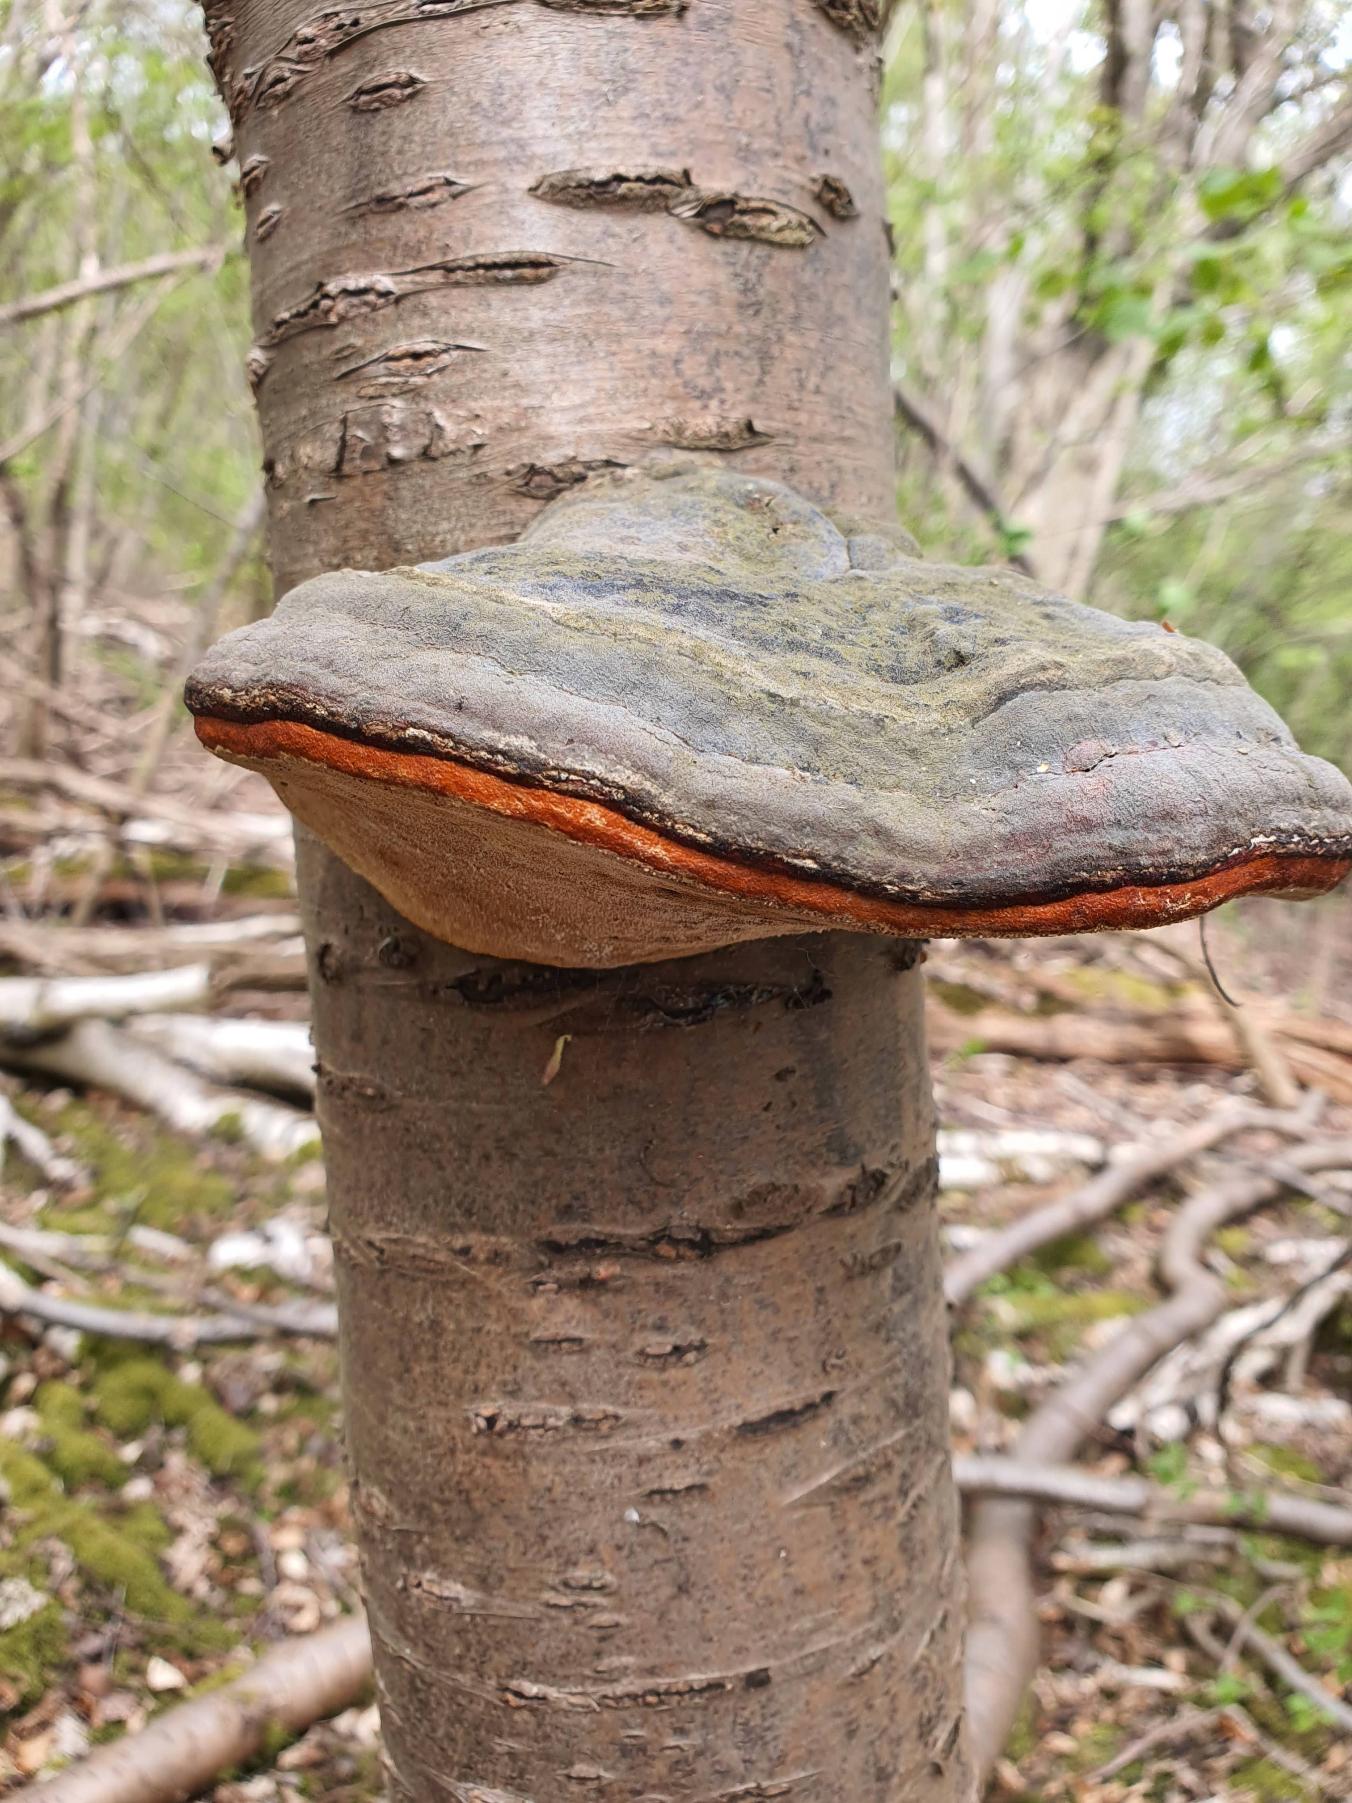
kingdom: Fungi
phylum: Basidiomycota
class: Agaricomycetes
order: Polyporales
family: Fomitopsidaceae
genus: Fomitopsis
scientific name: Fomitopsis pinicola
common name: Randbæltet hovporesvamp
